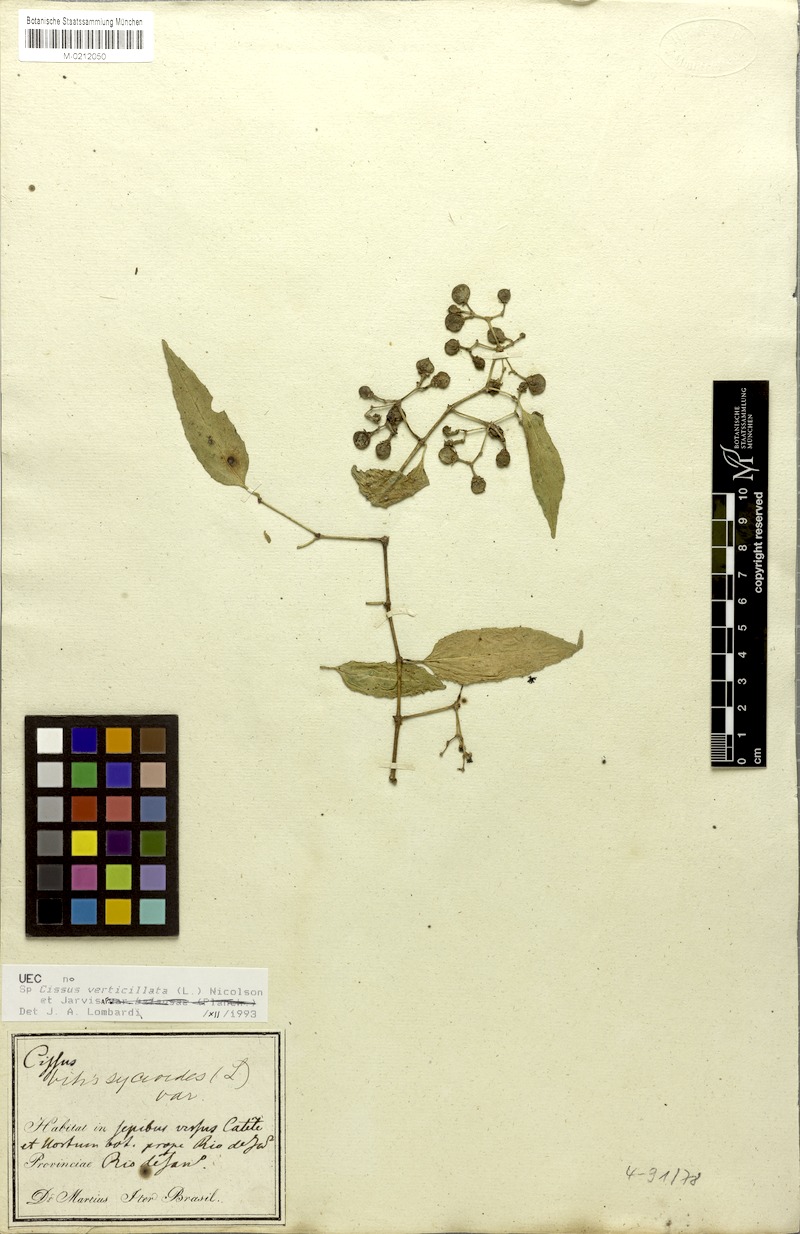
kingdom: Plantae
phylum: Tracheophyta
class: Magnoliopsida
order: Vitales
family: Vitaceae
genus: Cissus
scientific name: Cissus verticillata
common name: Princess vine
